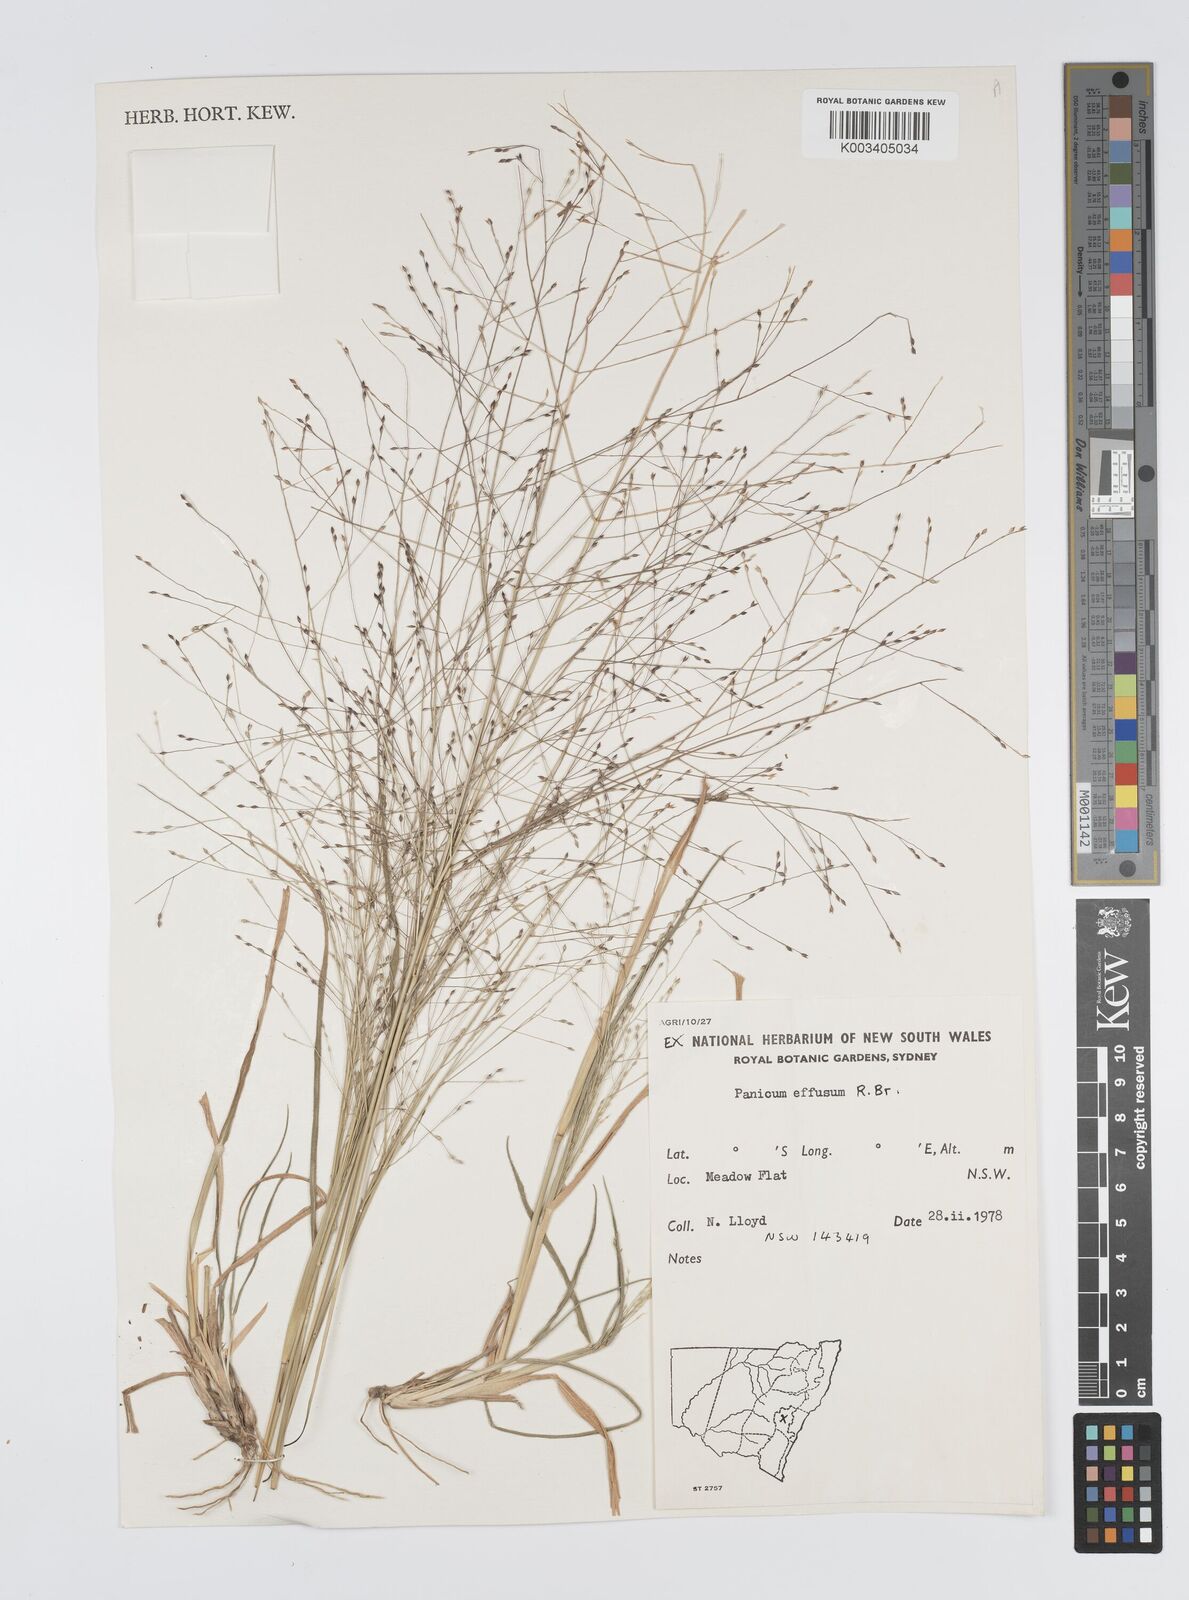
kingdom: Plantae
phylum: Tracheophyta
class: Liliopsida
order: Poales
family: Poaceae
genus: Panicum
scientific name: Panicum effusum
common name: Hairy panic grass
